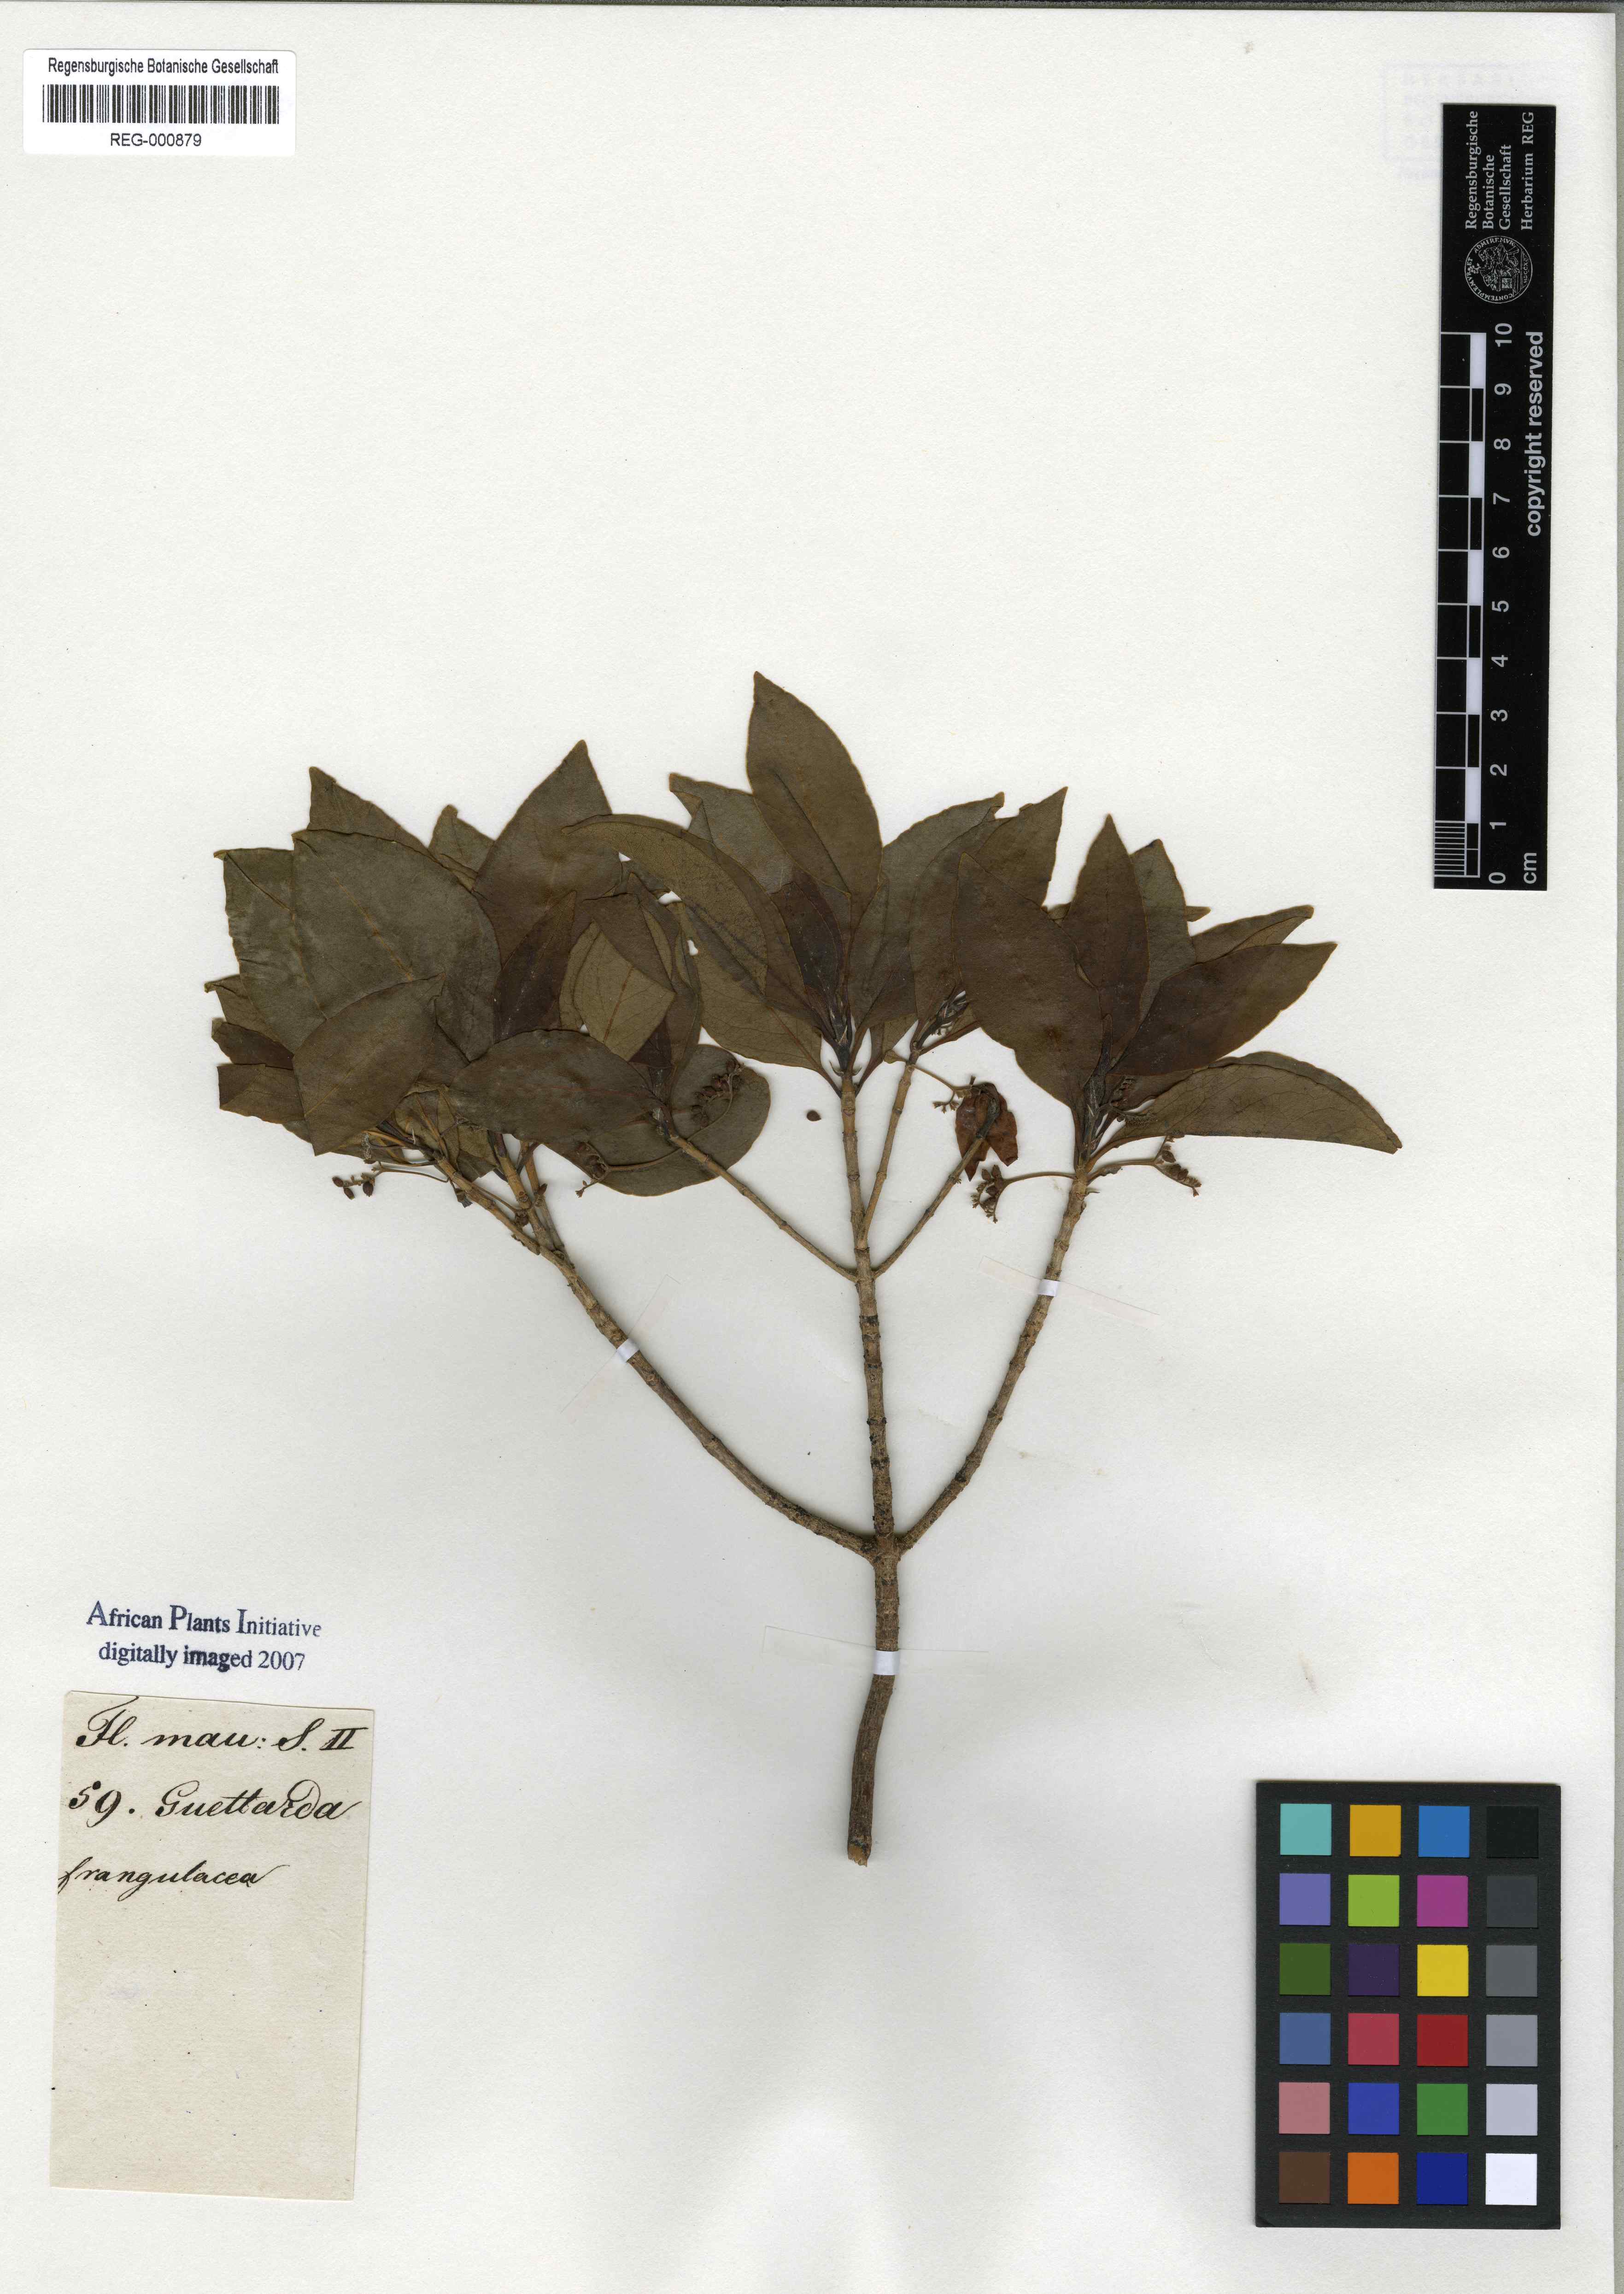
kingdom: Plantae
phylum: Tracheophyta
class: Magnoliopsida
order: Gentianales
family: Rubiaceae
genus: Antirhea
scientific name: Antirhea bifida
